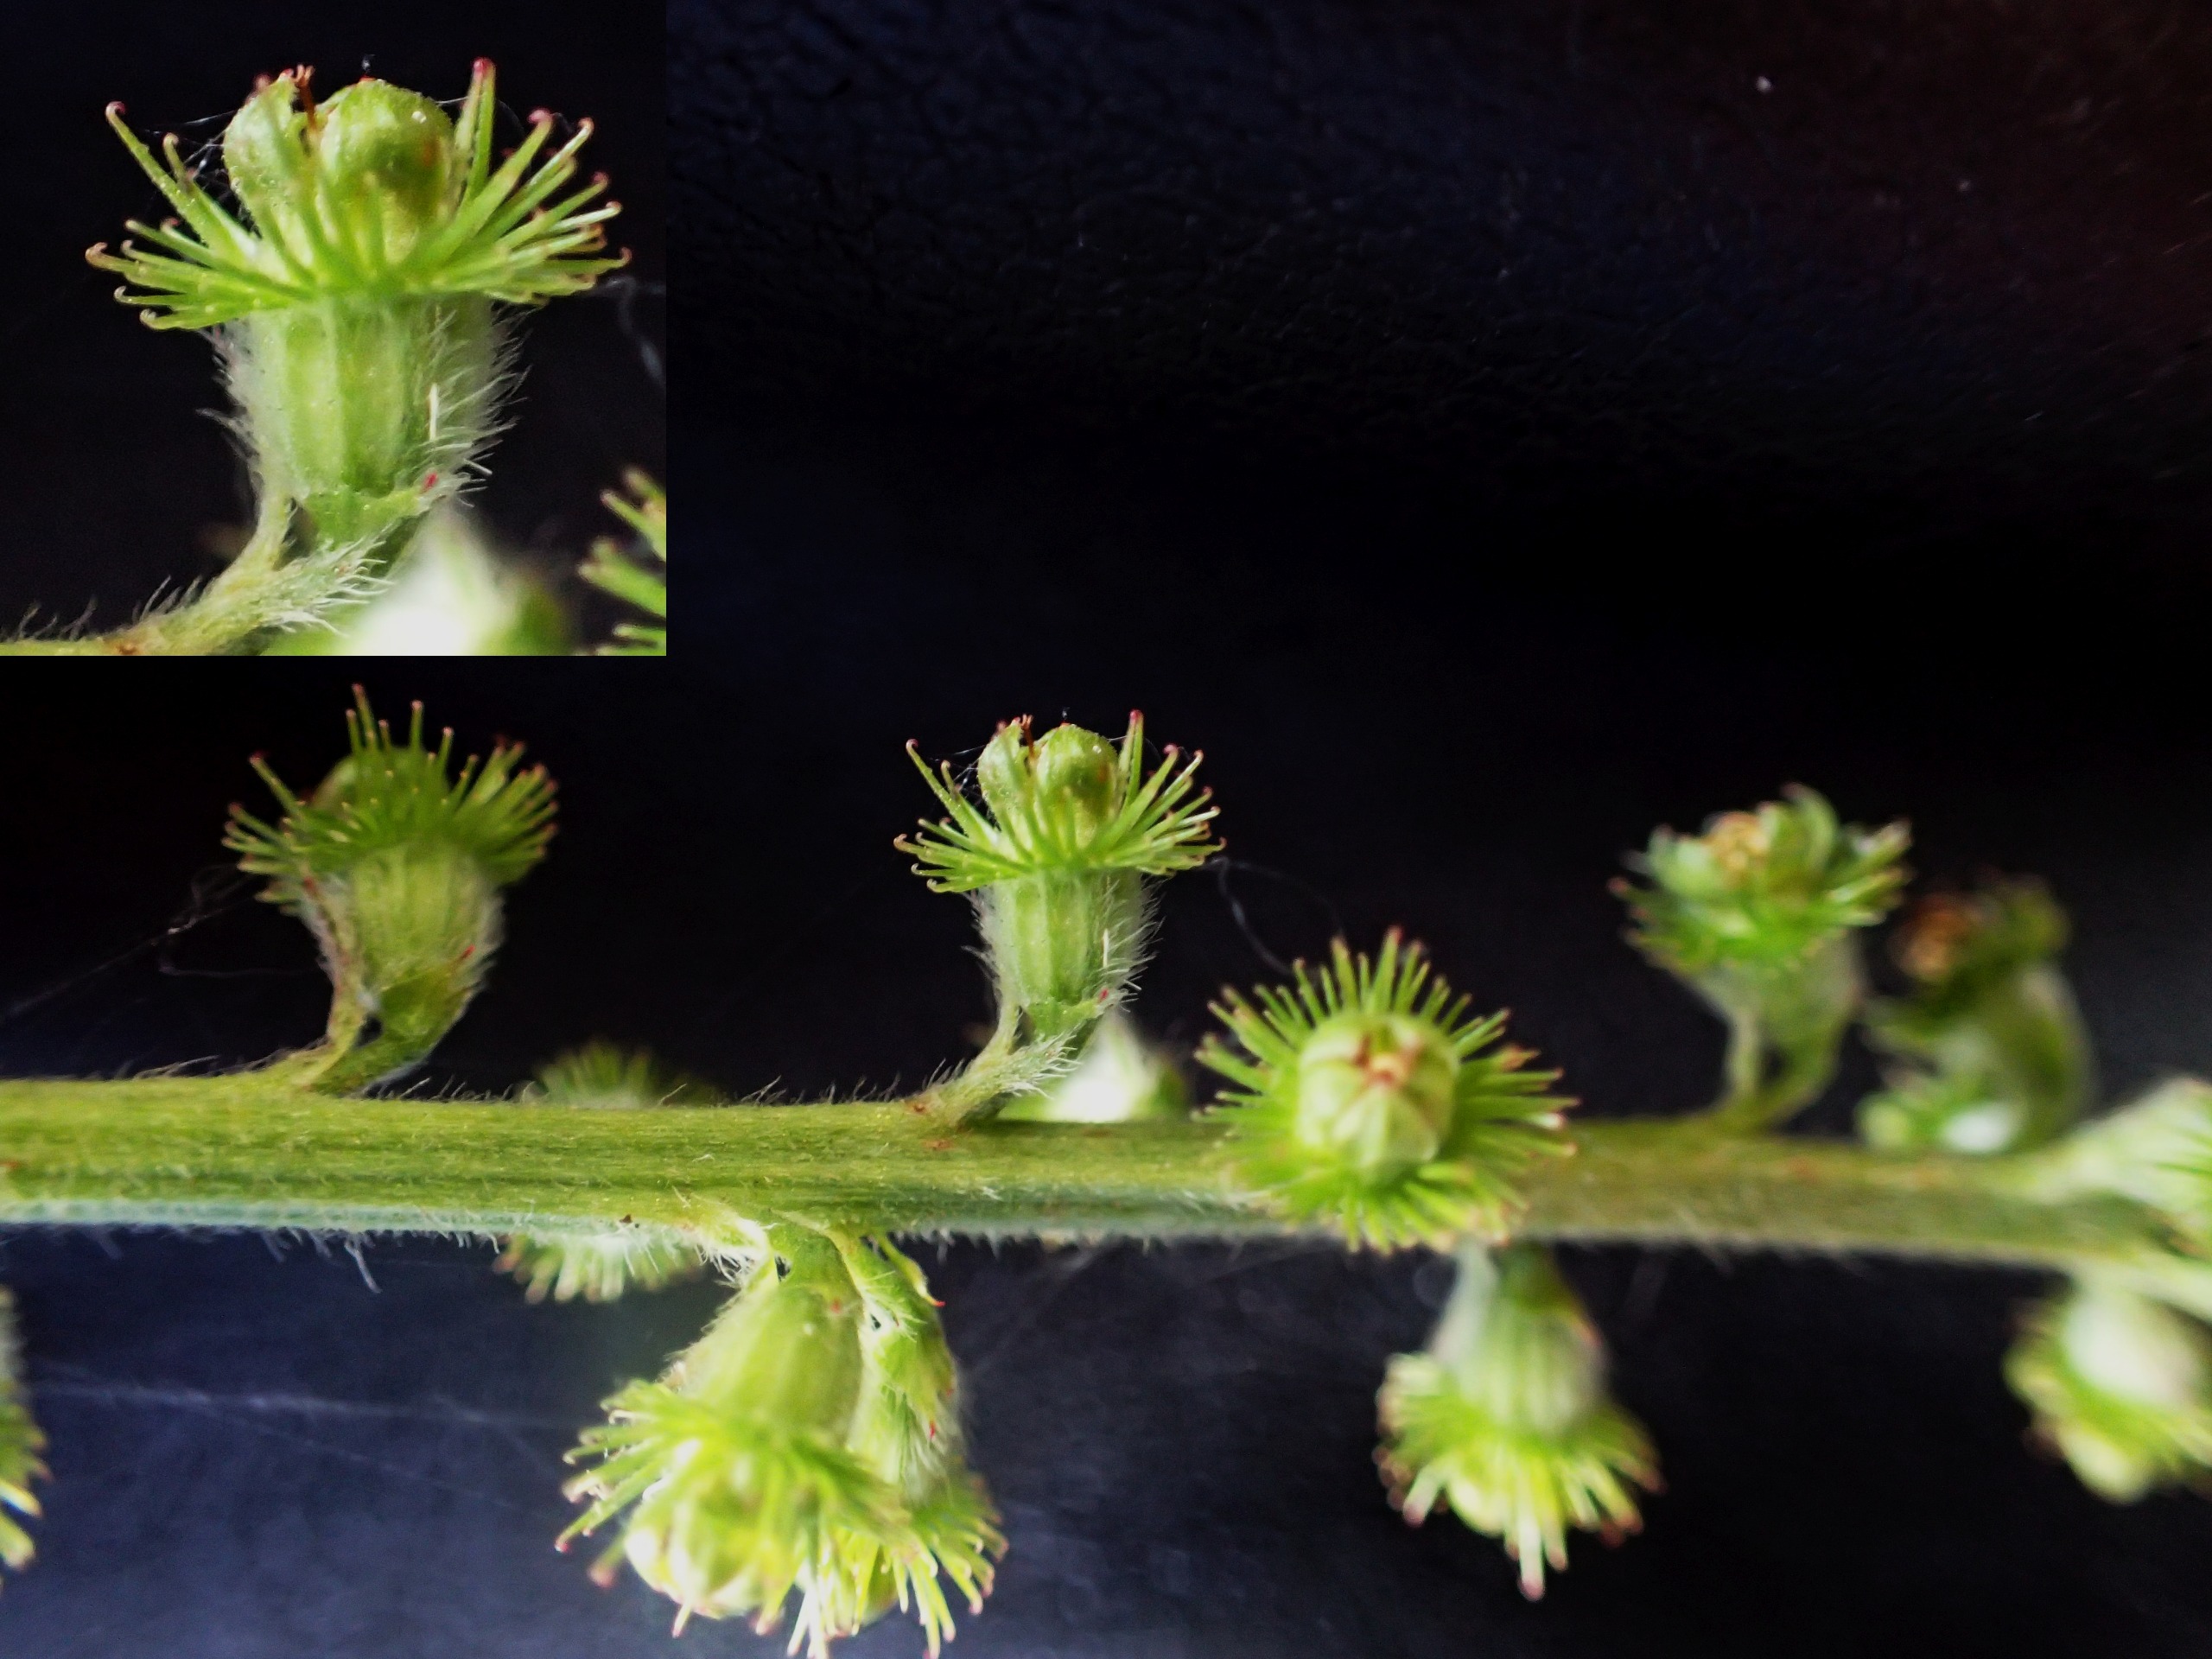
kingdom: Plantae
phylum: Tracheophyta
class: Magnoliopsida
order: Rosales
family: Rosaceae
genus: Agrimonia
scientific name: Agrimonia
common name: Almindelig agermåne × vellugtende agermåne
